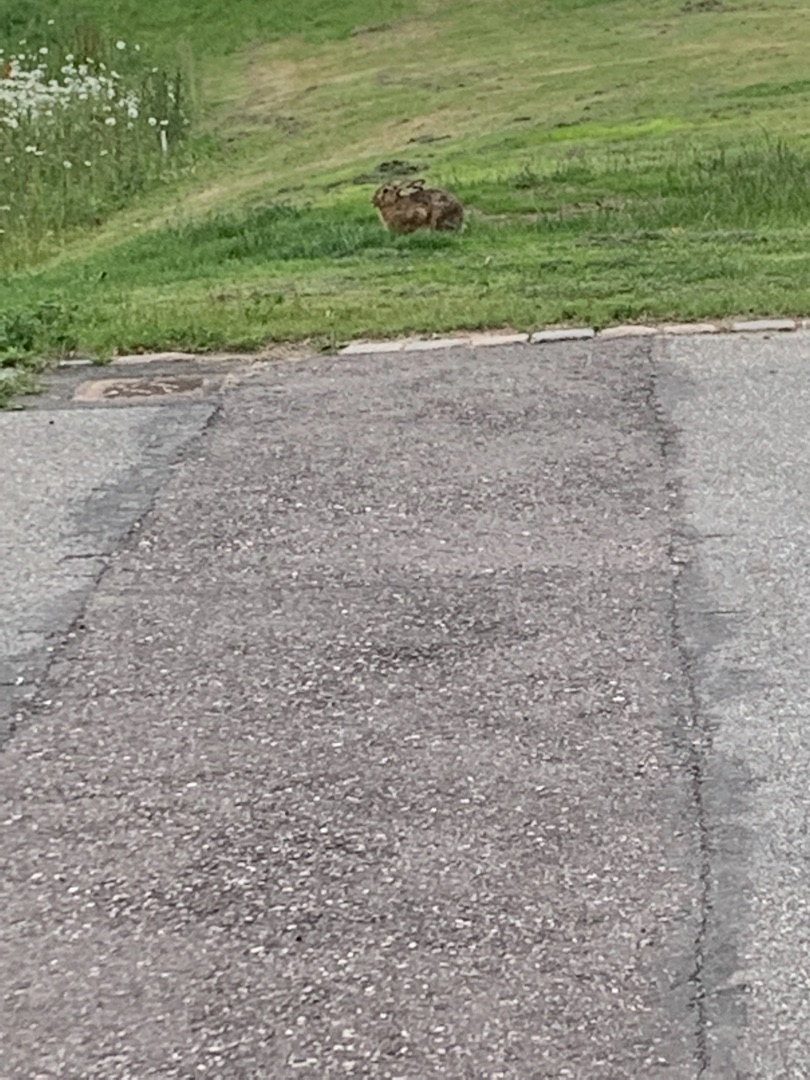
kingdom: Animalia
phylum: Chordata
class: Mammalia
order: Lagomorpha
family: Leporidae
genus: Lepus
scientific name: Lepus europaeus
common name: Hare
